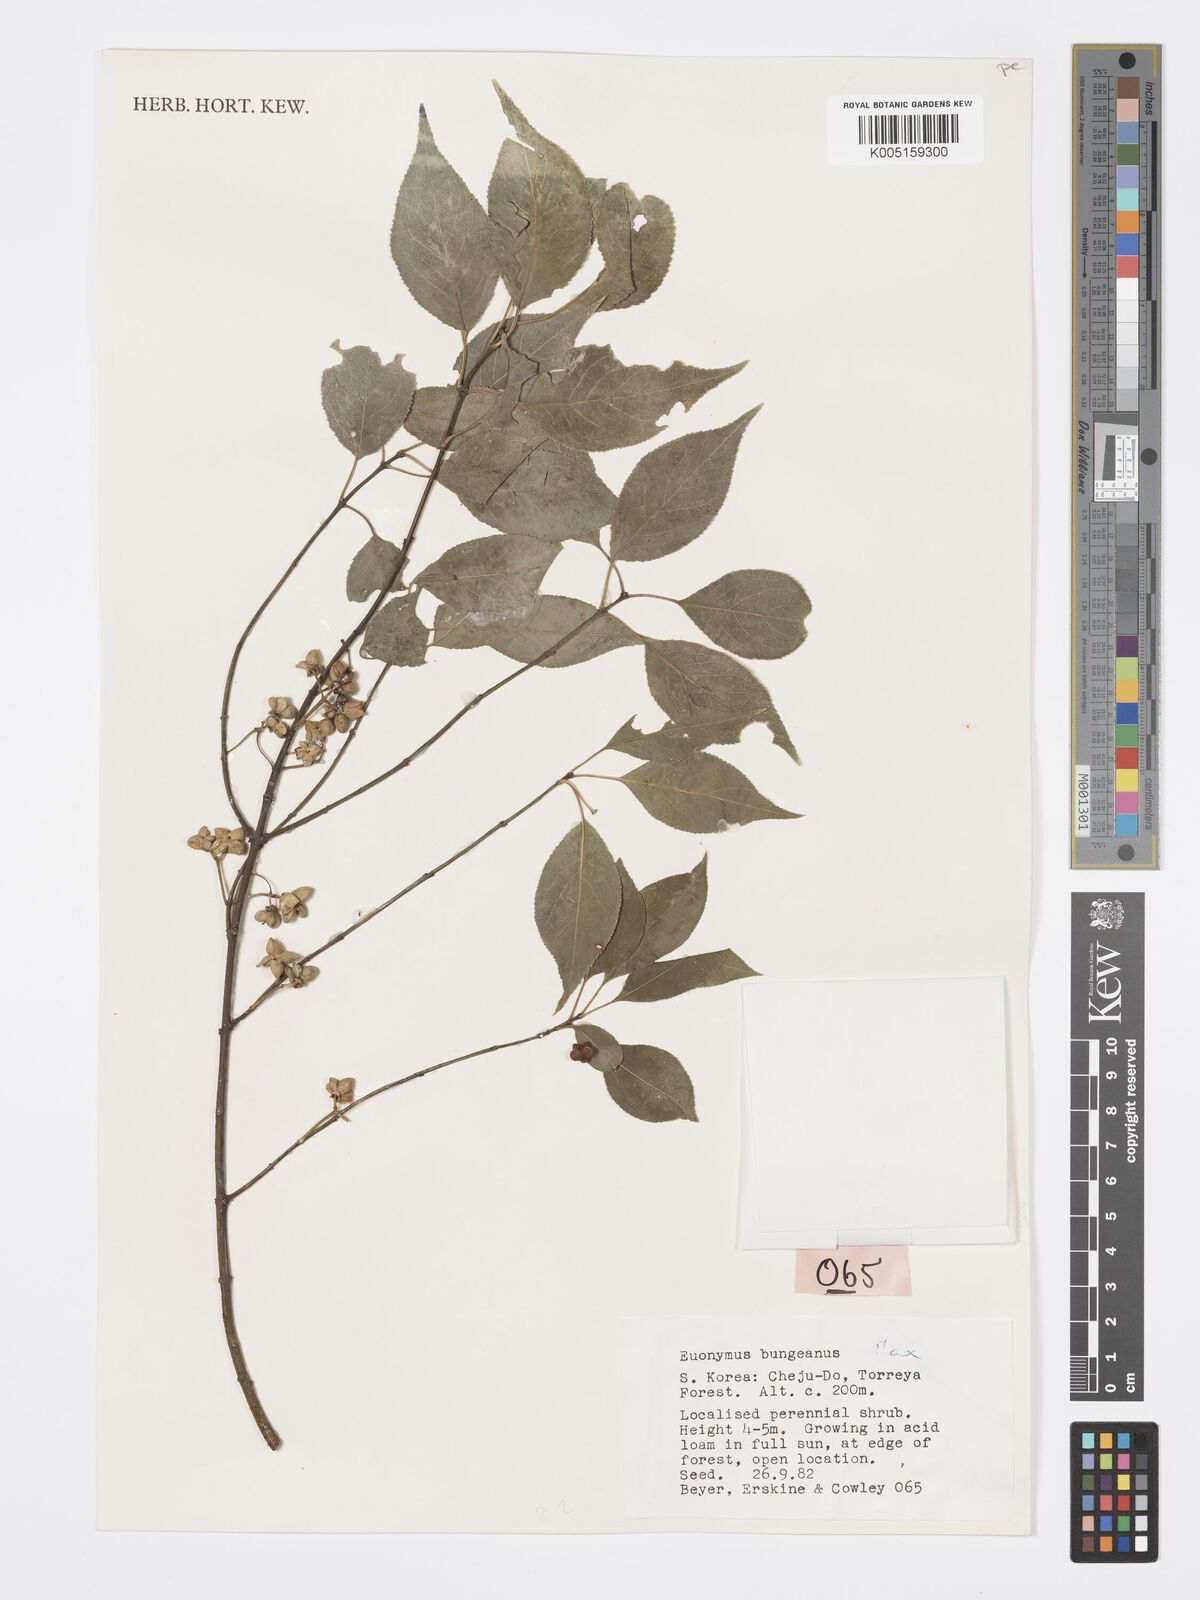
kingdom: Plantae
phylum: Tracheophyta
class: Magnoliopsida
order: Celastrales
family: Celastraceae
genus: Euonymus
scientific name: Euonymus maackii
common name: Hamilton's spindletree
